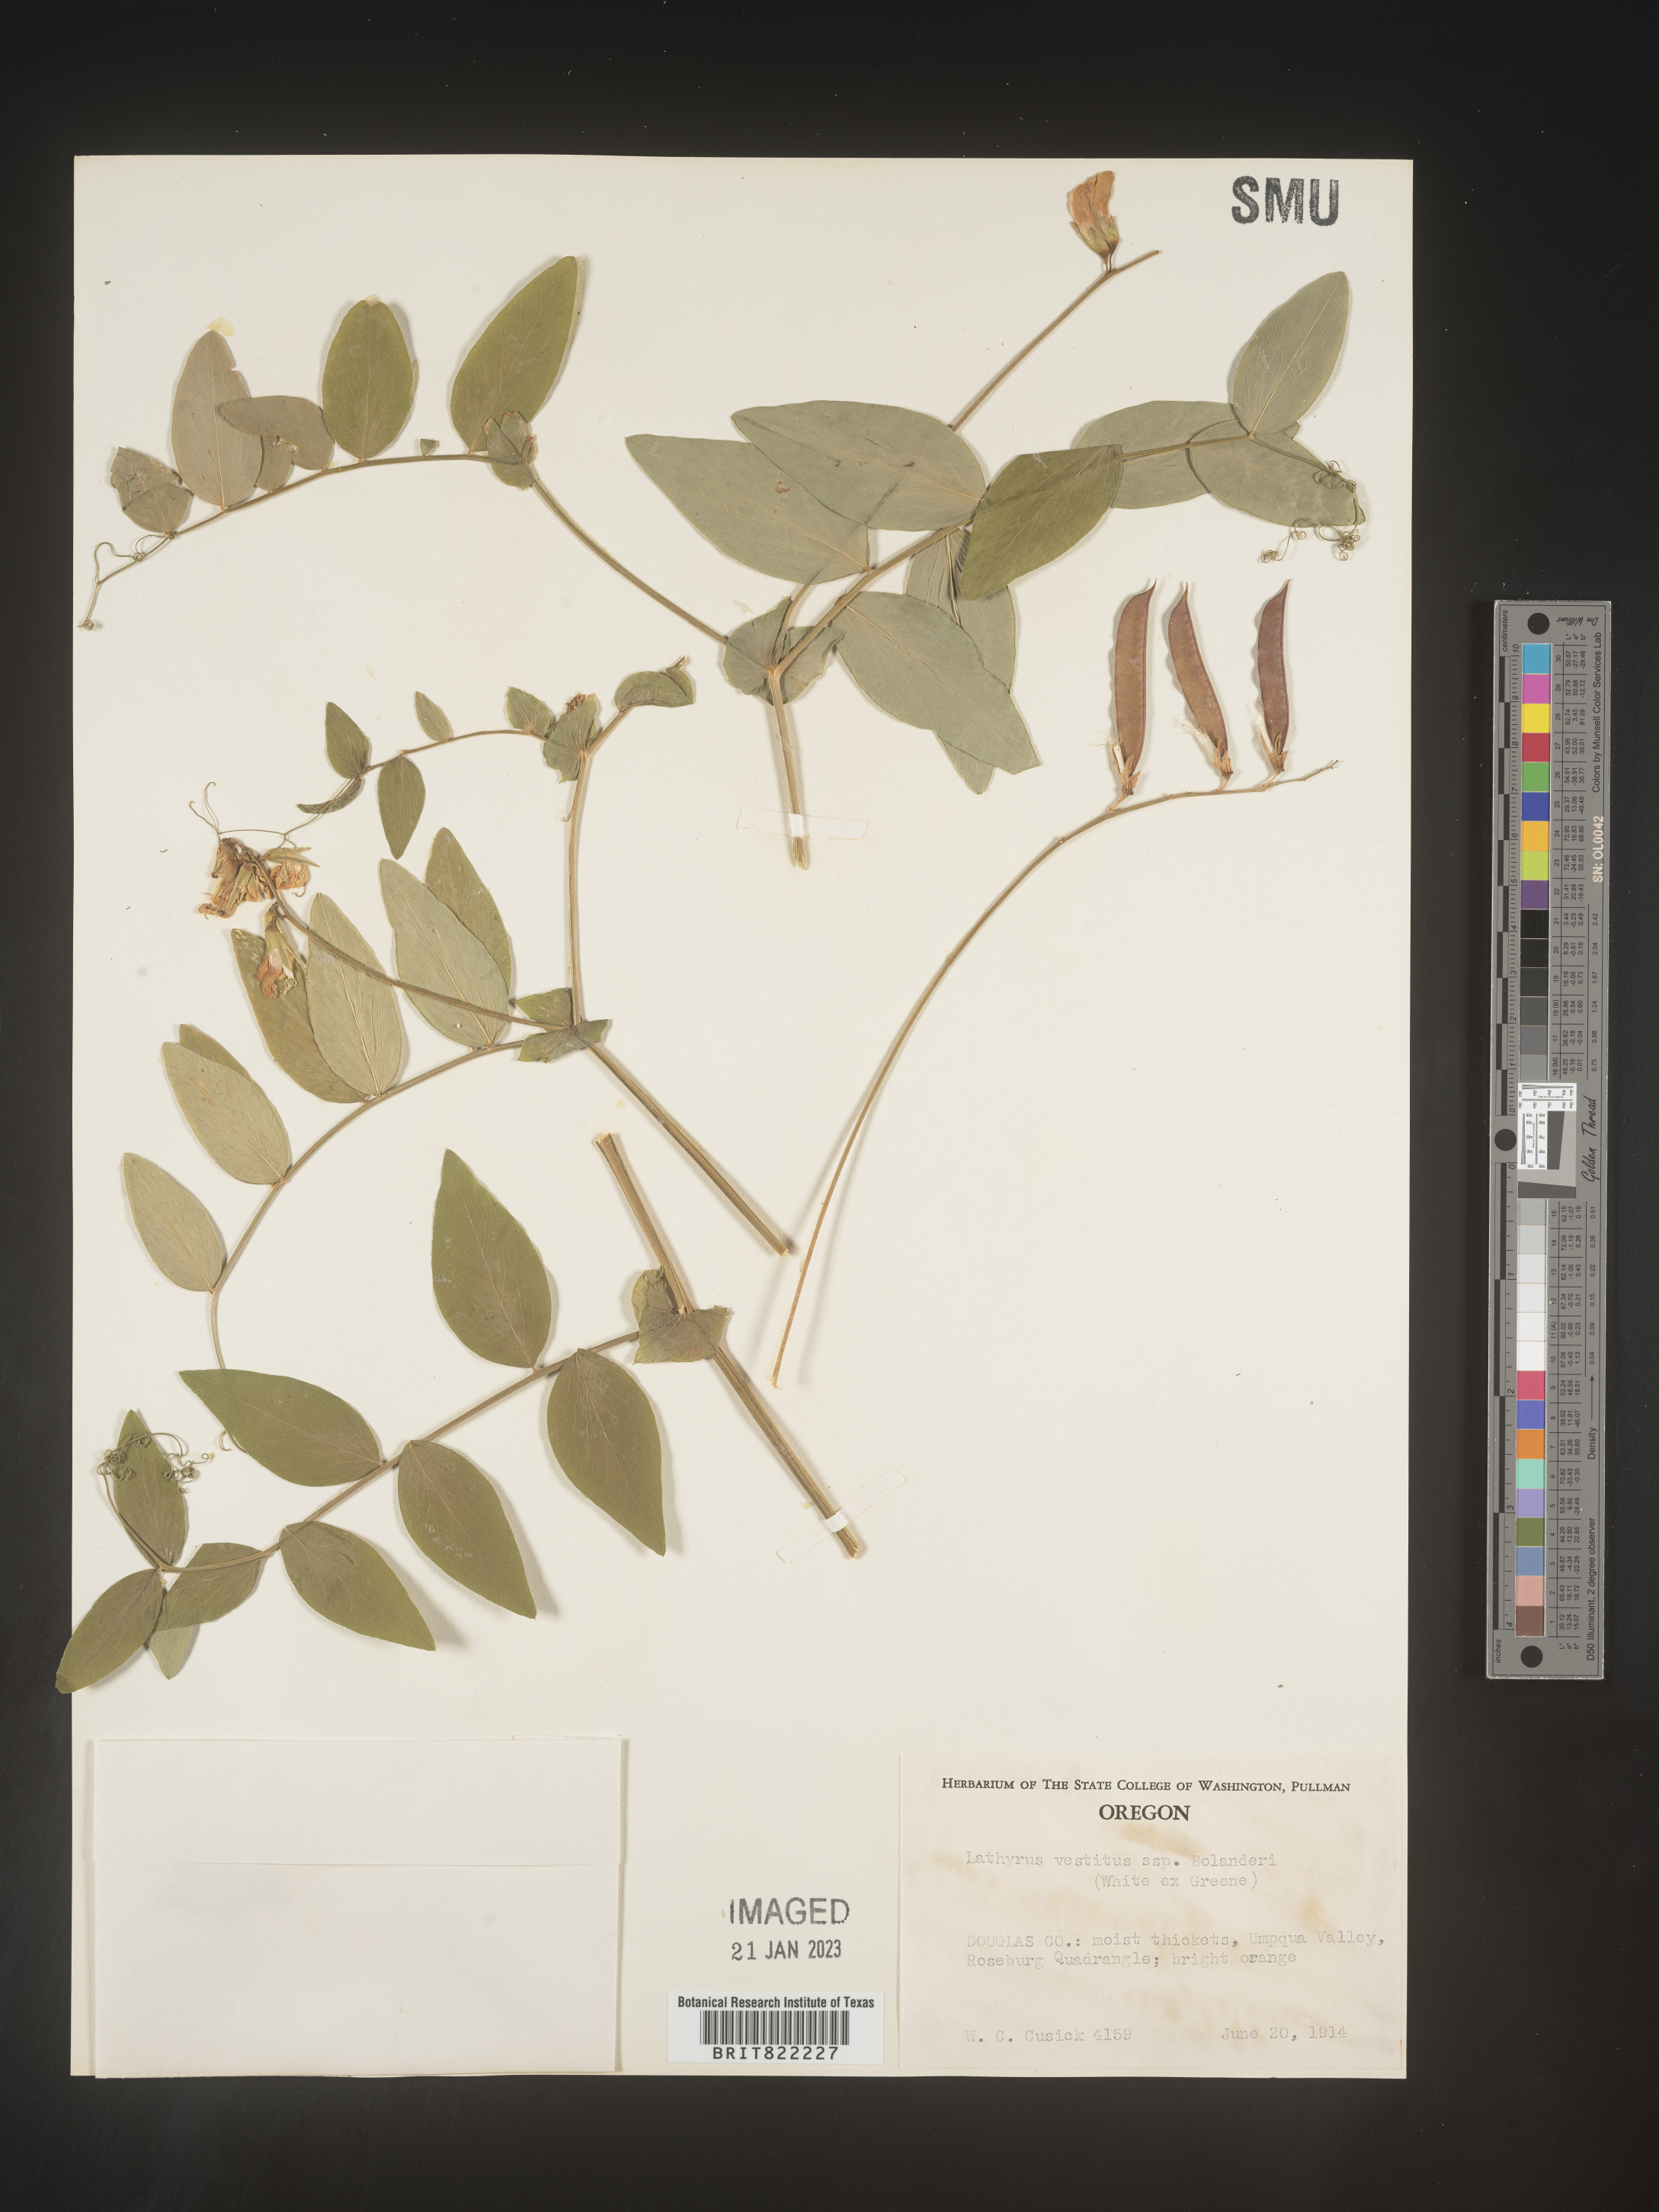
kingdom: Plantae
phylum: Tracheophyta
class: Magnoliopsida
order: Fabales
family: Fabaceae
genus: Lathyrus
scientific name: Lathyrus vestitus
